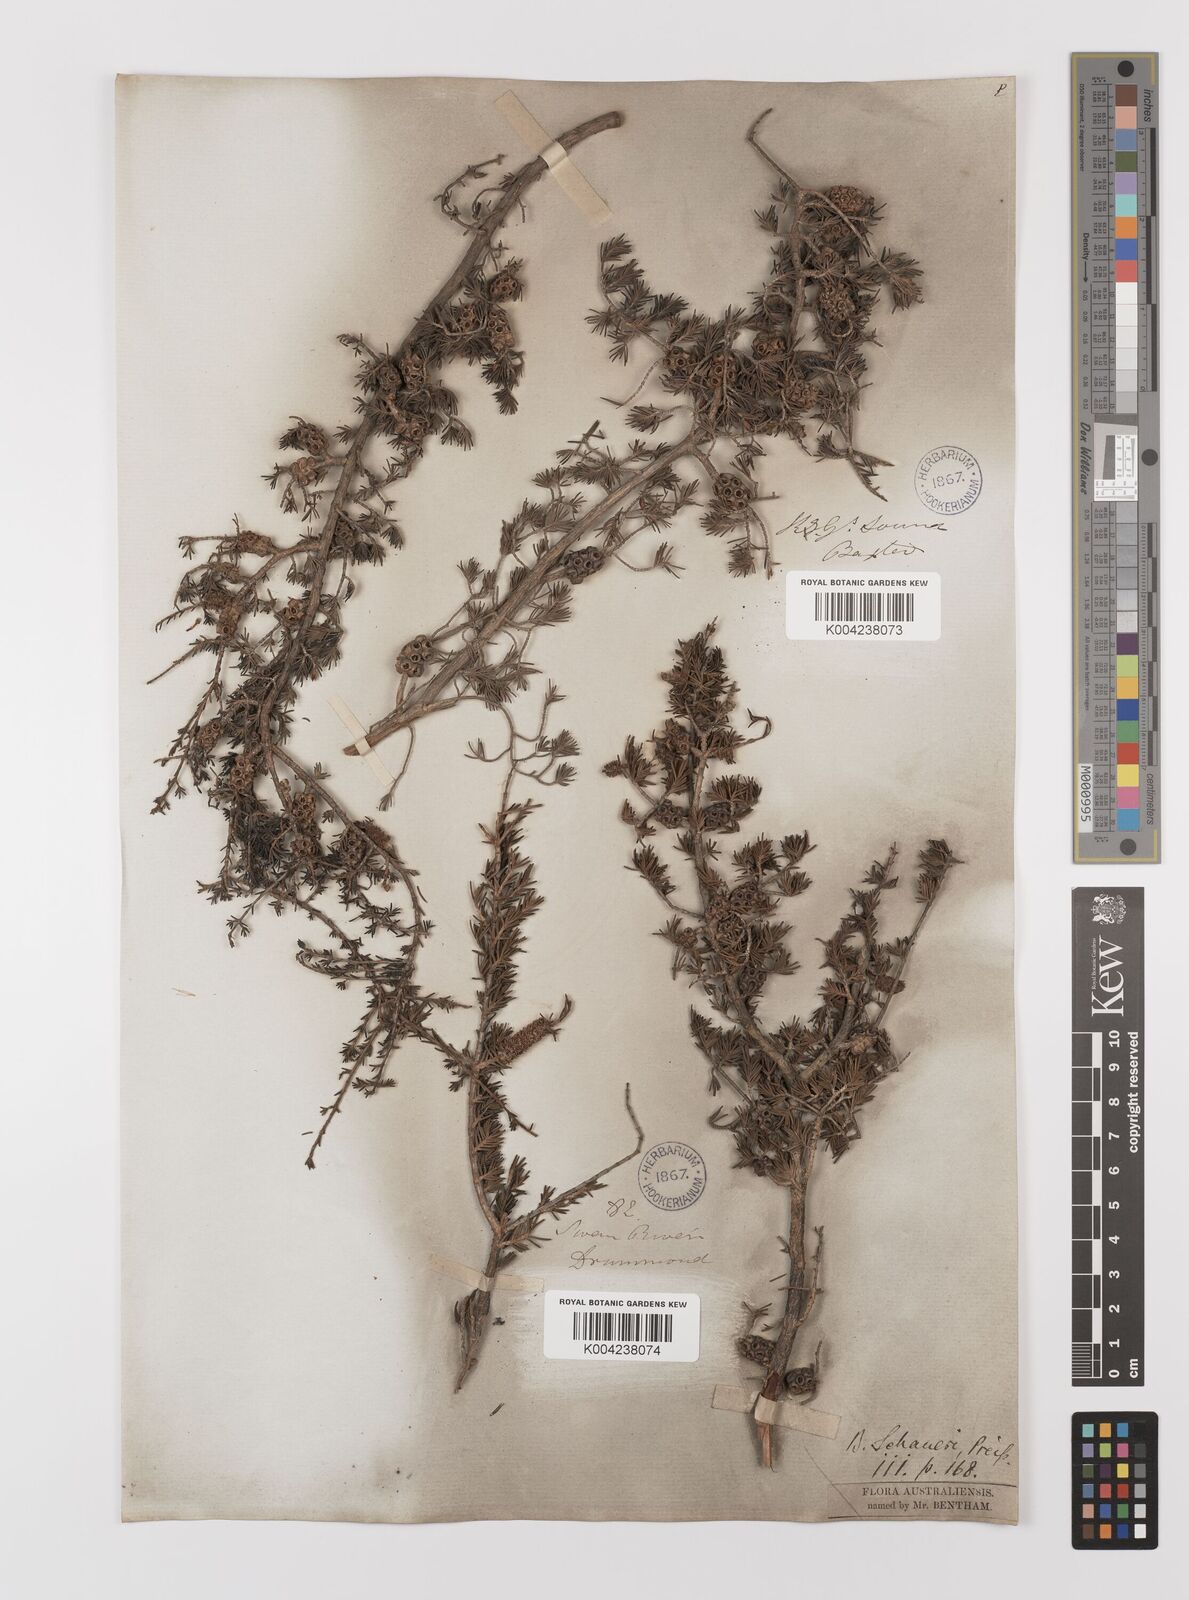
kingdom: Plantae
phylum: Tracheophyta
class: Magnoliopsida
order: Myrtales
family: Myrtaceae
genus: Melaleuca
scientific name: Melaleuca jonesii
